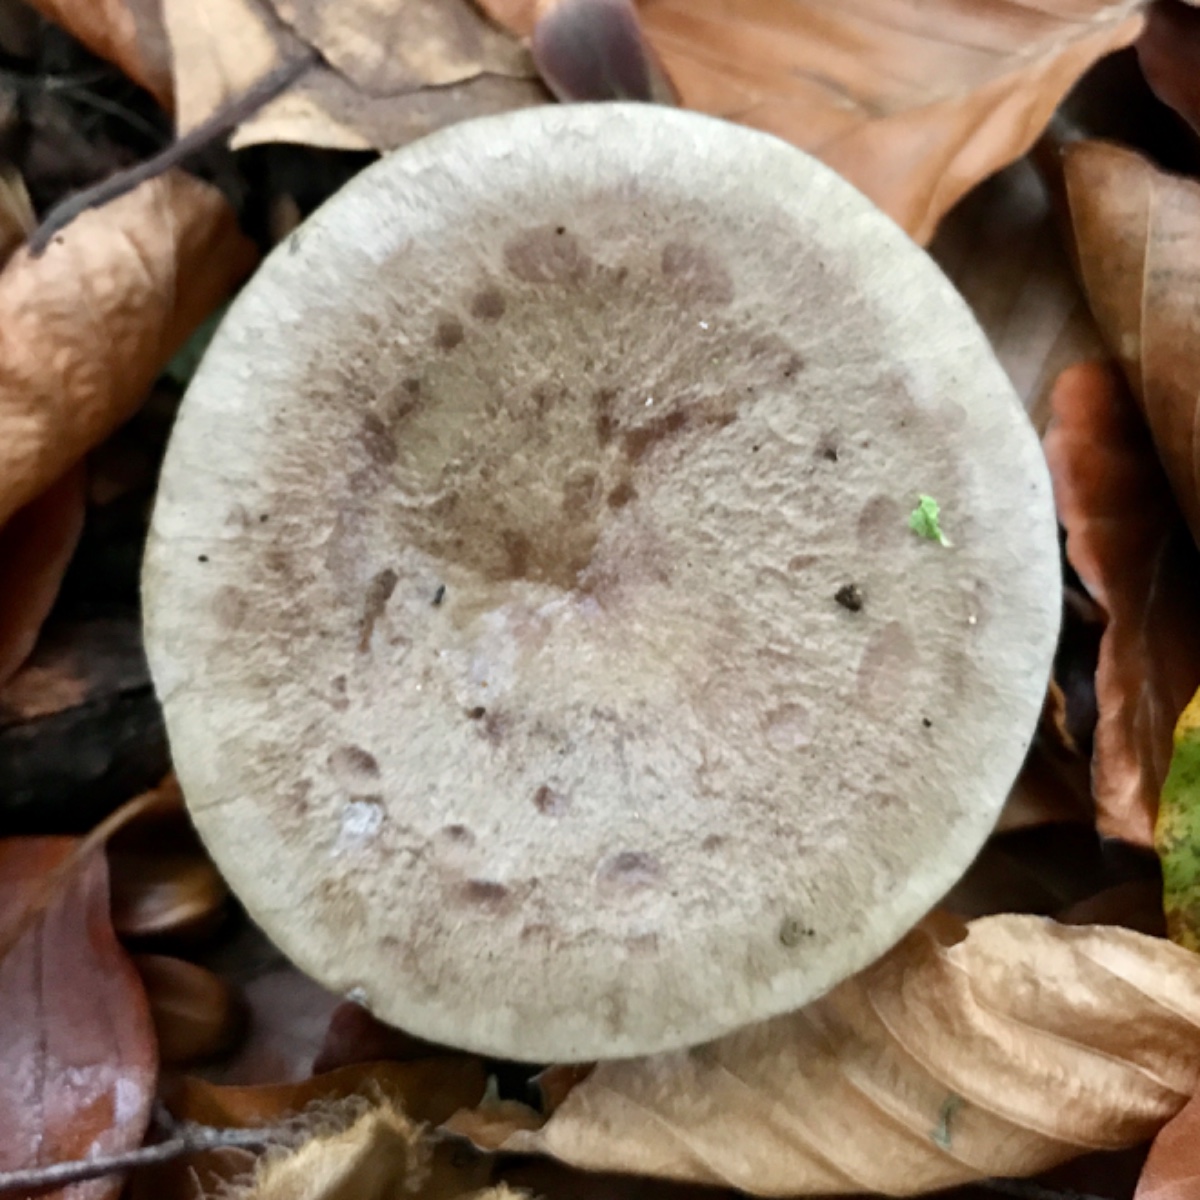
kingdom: Fungi
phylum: Basidiomycota
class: Agaricomycetes
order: Russulales
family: Russulaceae
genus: Lactarius
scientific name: Lactarius blennius
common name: dråbeplettet mælkehat
